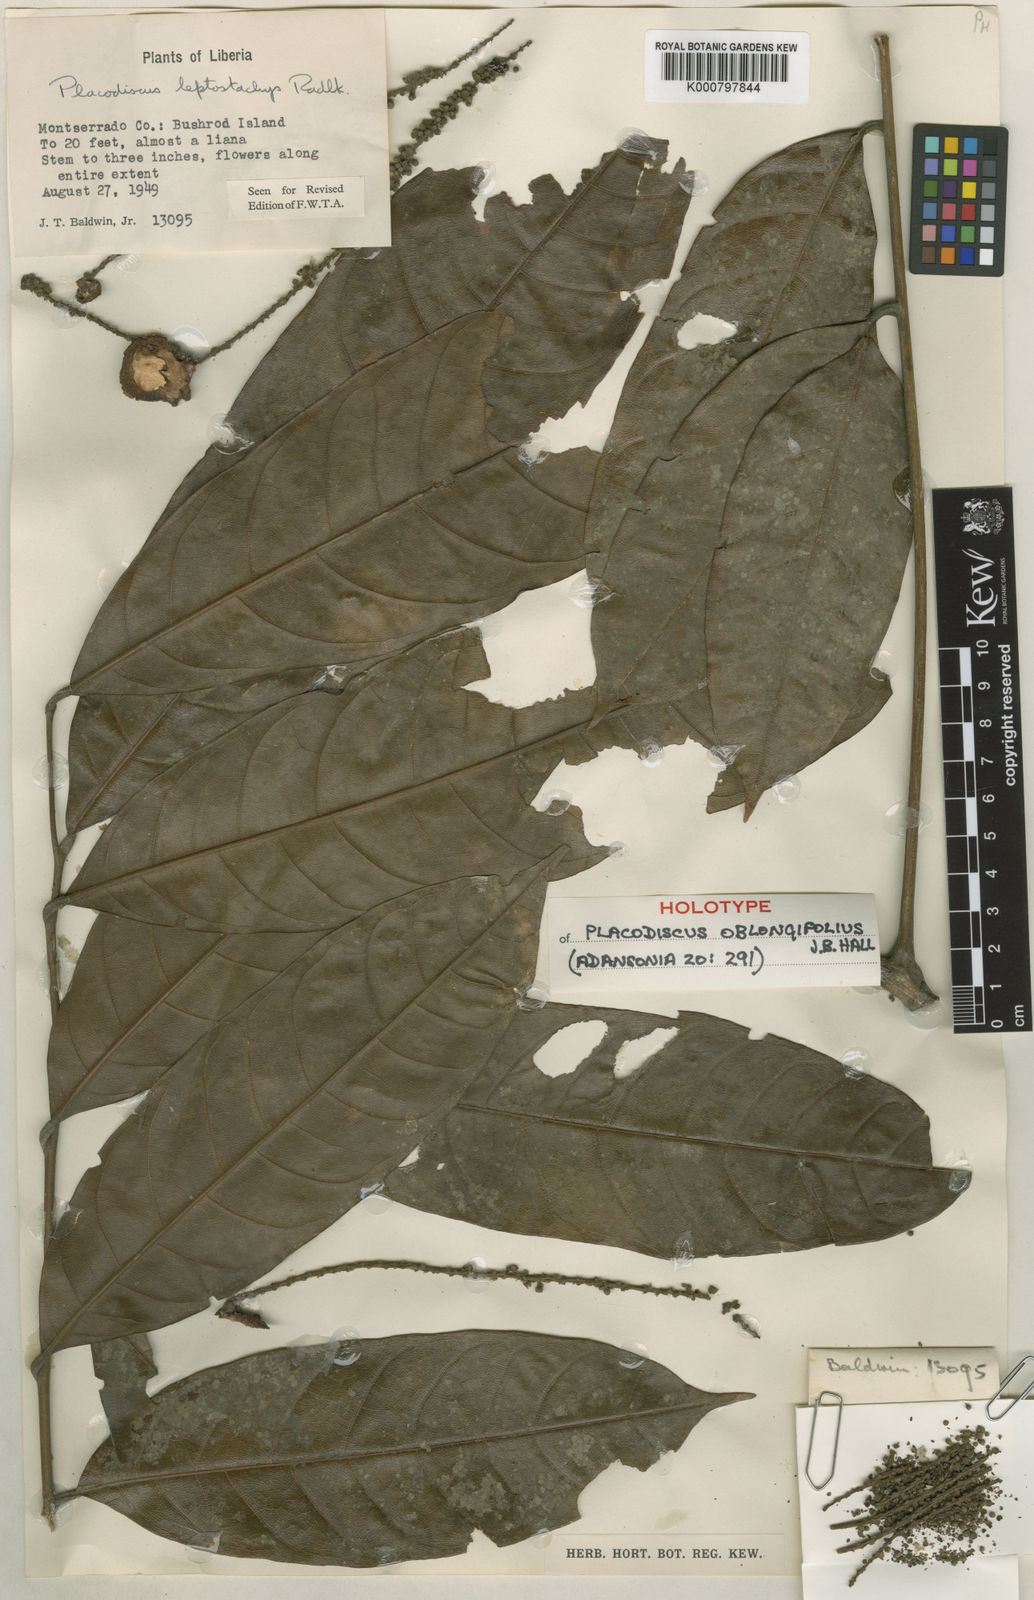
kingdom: Plantae
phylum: Tracheophyta
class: Magnoliopsida
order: Sapindales
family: Sapindaceae
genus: Placodiscus
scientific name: Placodiscus oblongifolius
